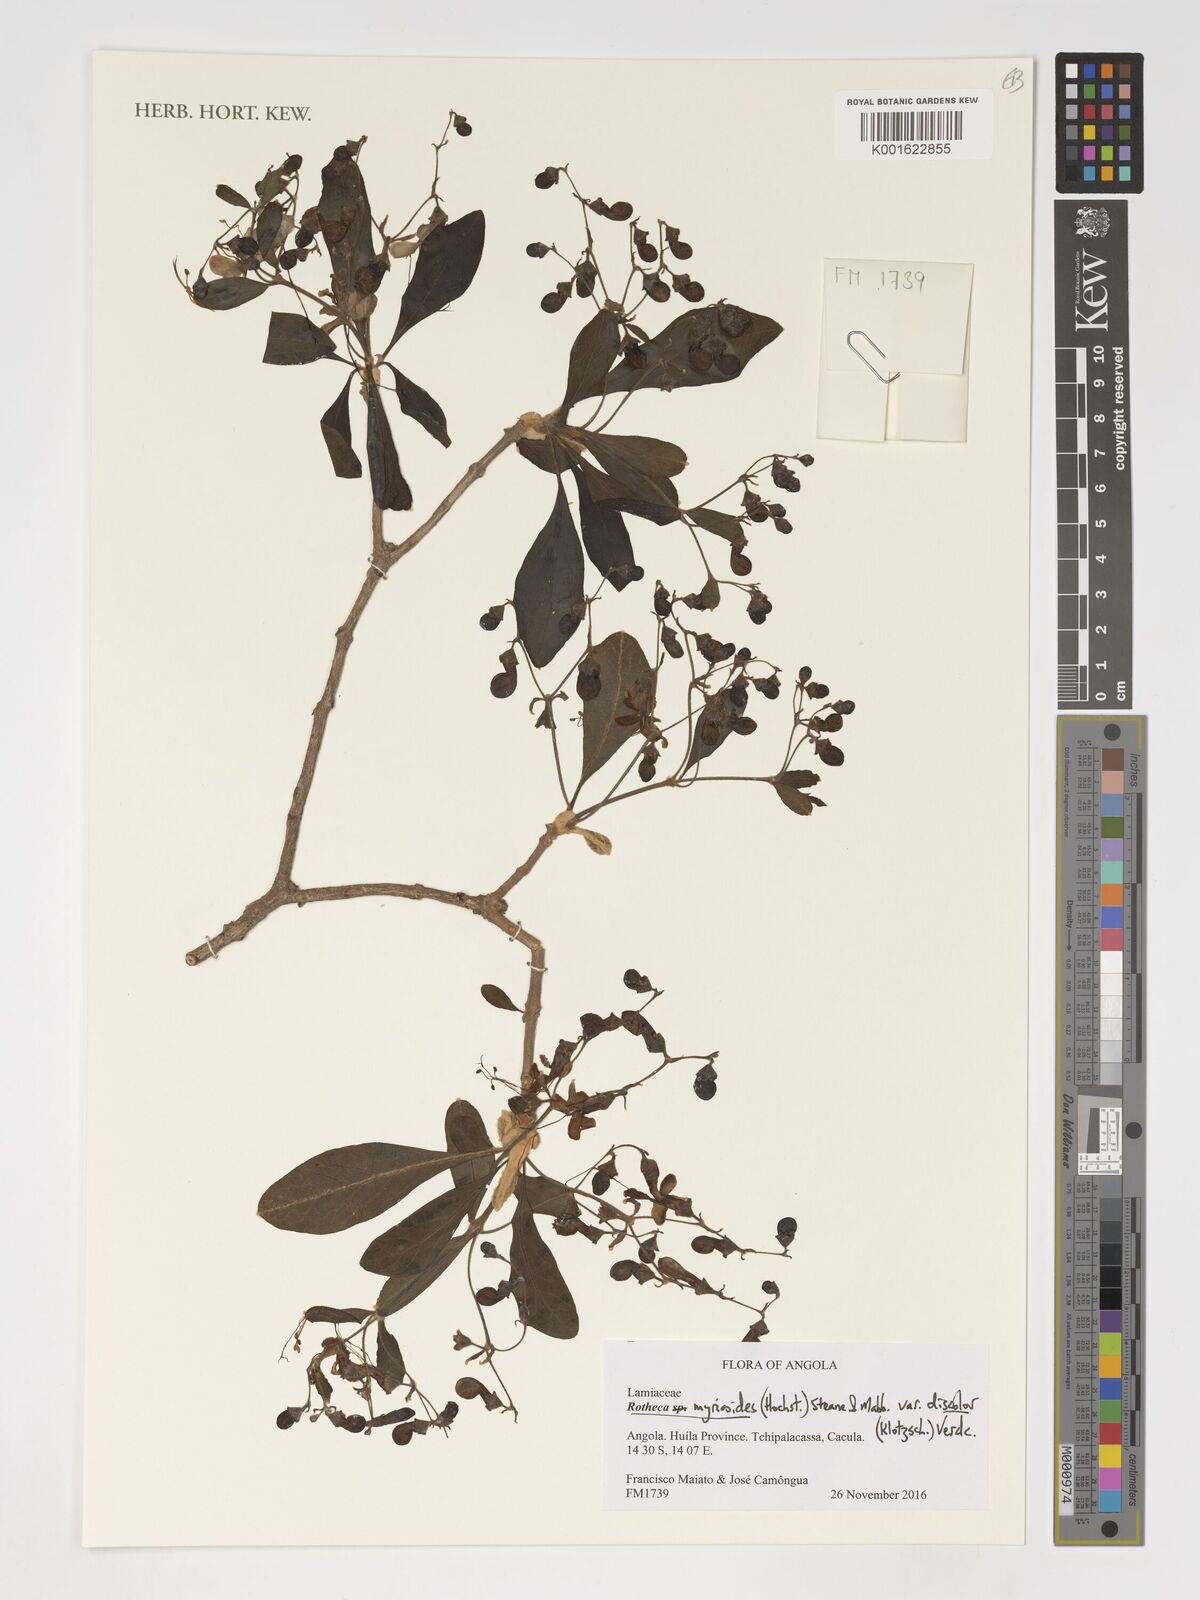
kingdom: Plantae
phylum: Tracheophyta
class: Magnoliopsida
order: Lamiales
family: Lamiaceae
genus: Rotheca
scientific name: Rotheca myricoides
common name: Cats-whiskers
